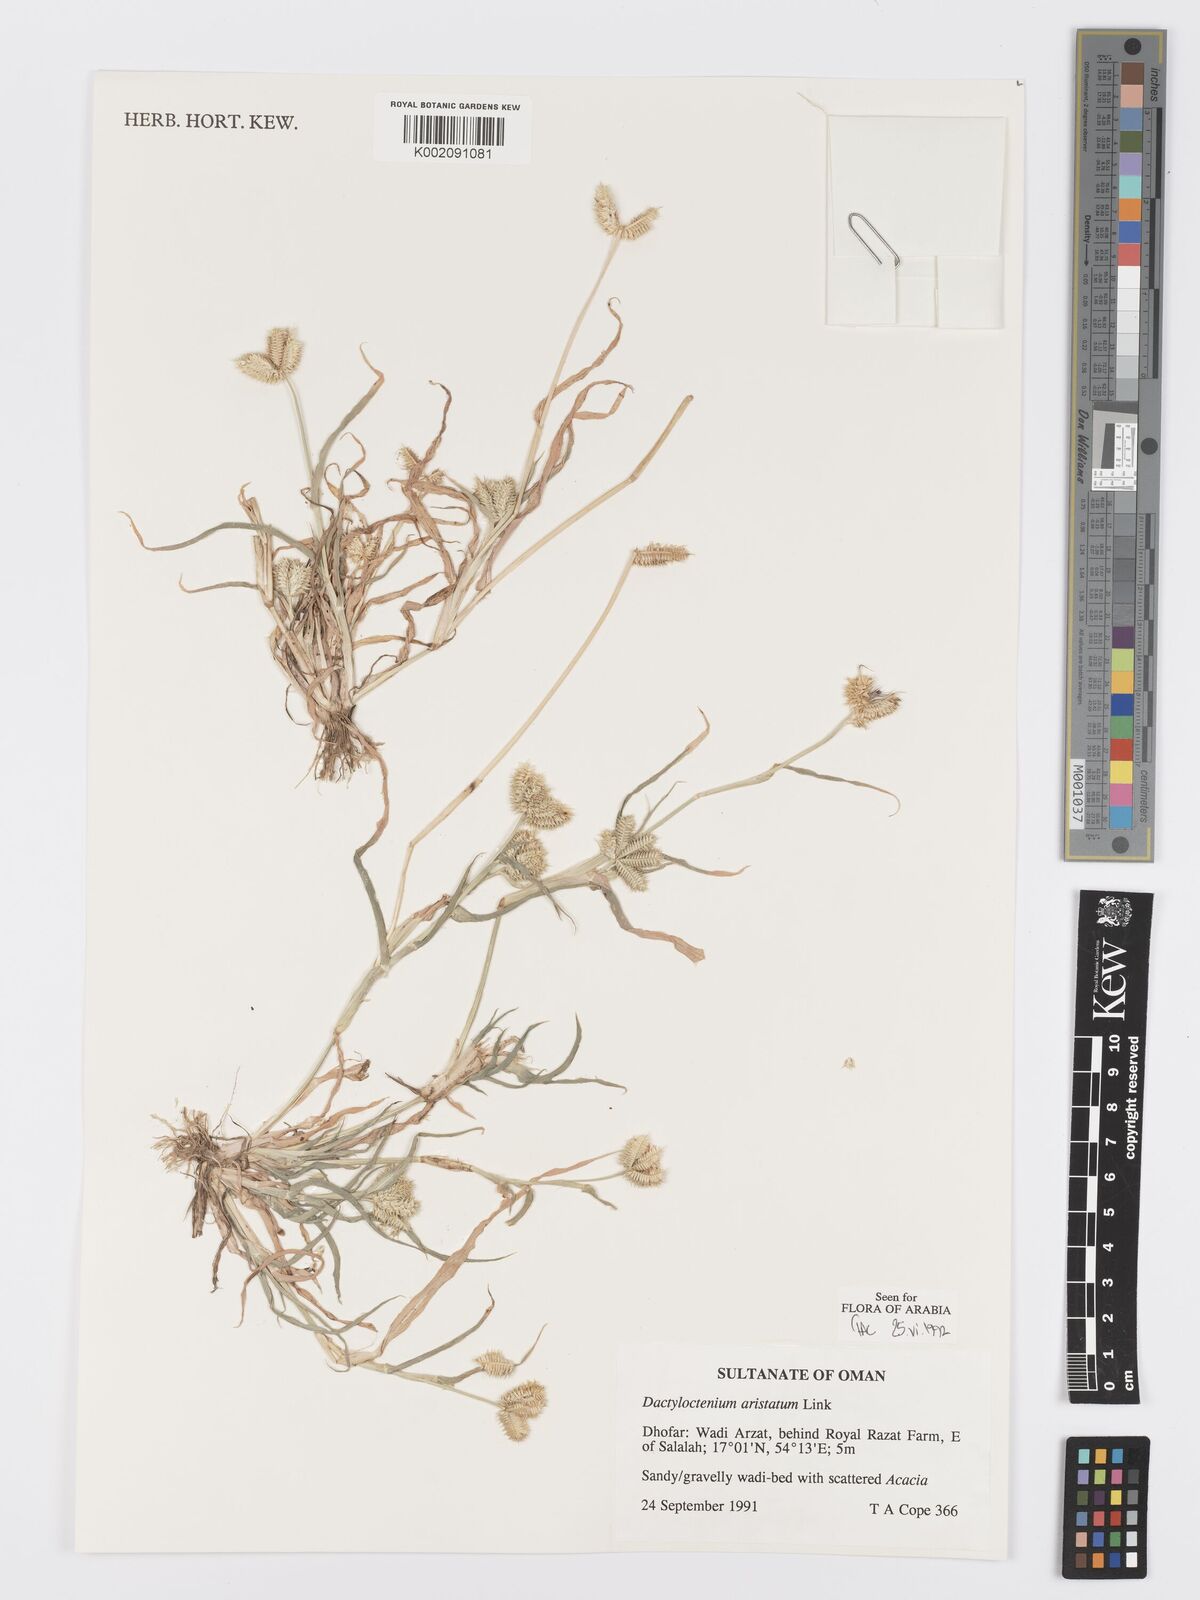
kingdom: Plantae
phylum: Tracheophyta
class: Liliopsida
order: Poales
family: Poaceae
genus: Dactyloctenium
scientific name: Dactyloctenium aristatum
